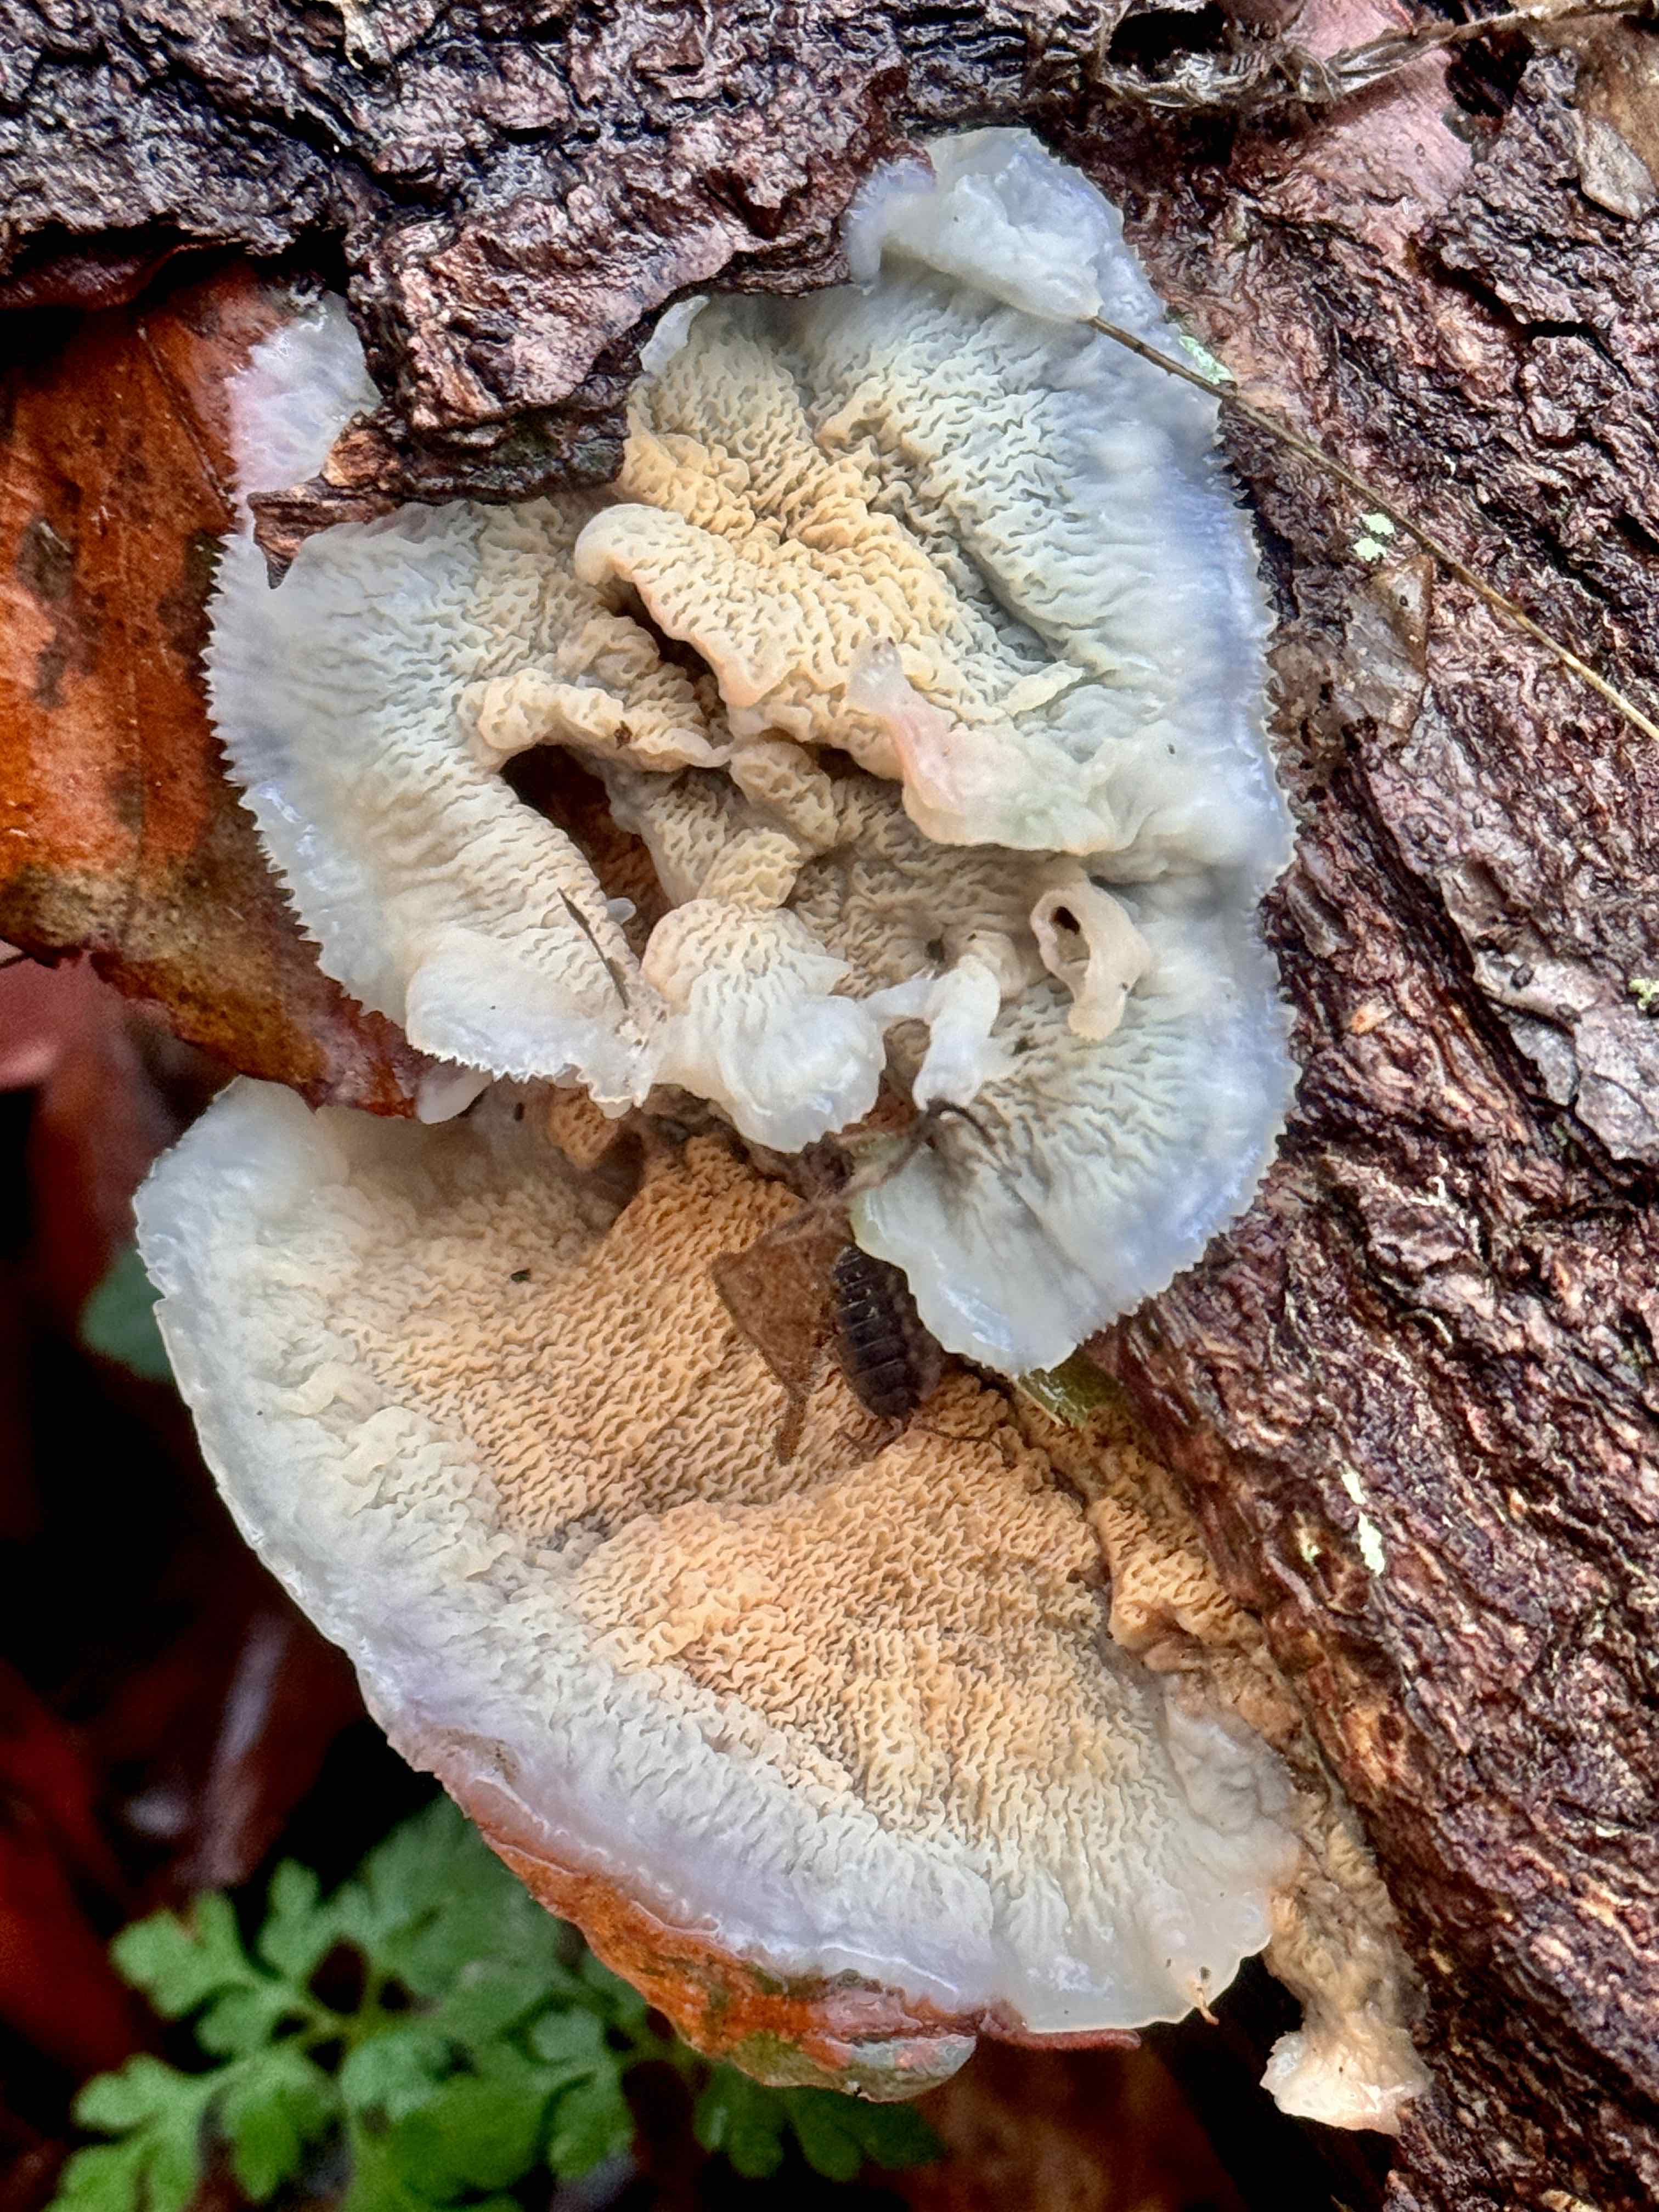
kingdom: Fungi
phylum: Basidiomycota
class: Agaricomycetes
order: Polyporales
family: Meruliaceae
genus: Phlebia
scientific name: Phlebia tremellosa
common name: bævrende åresvamp
